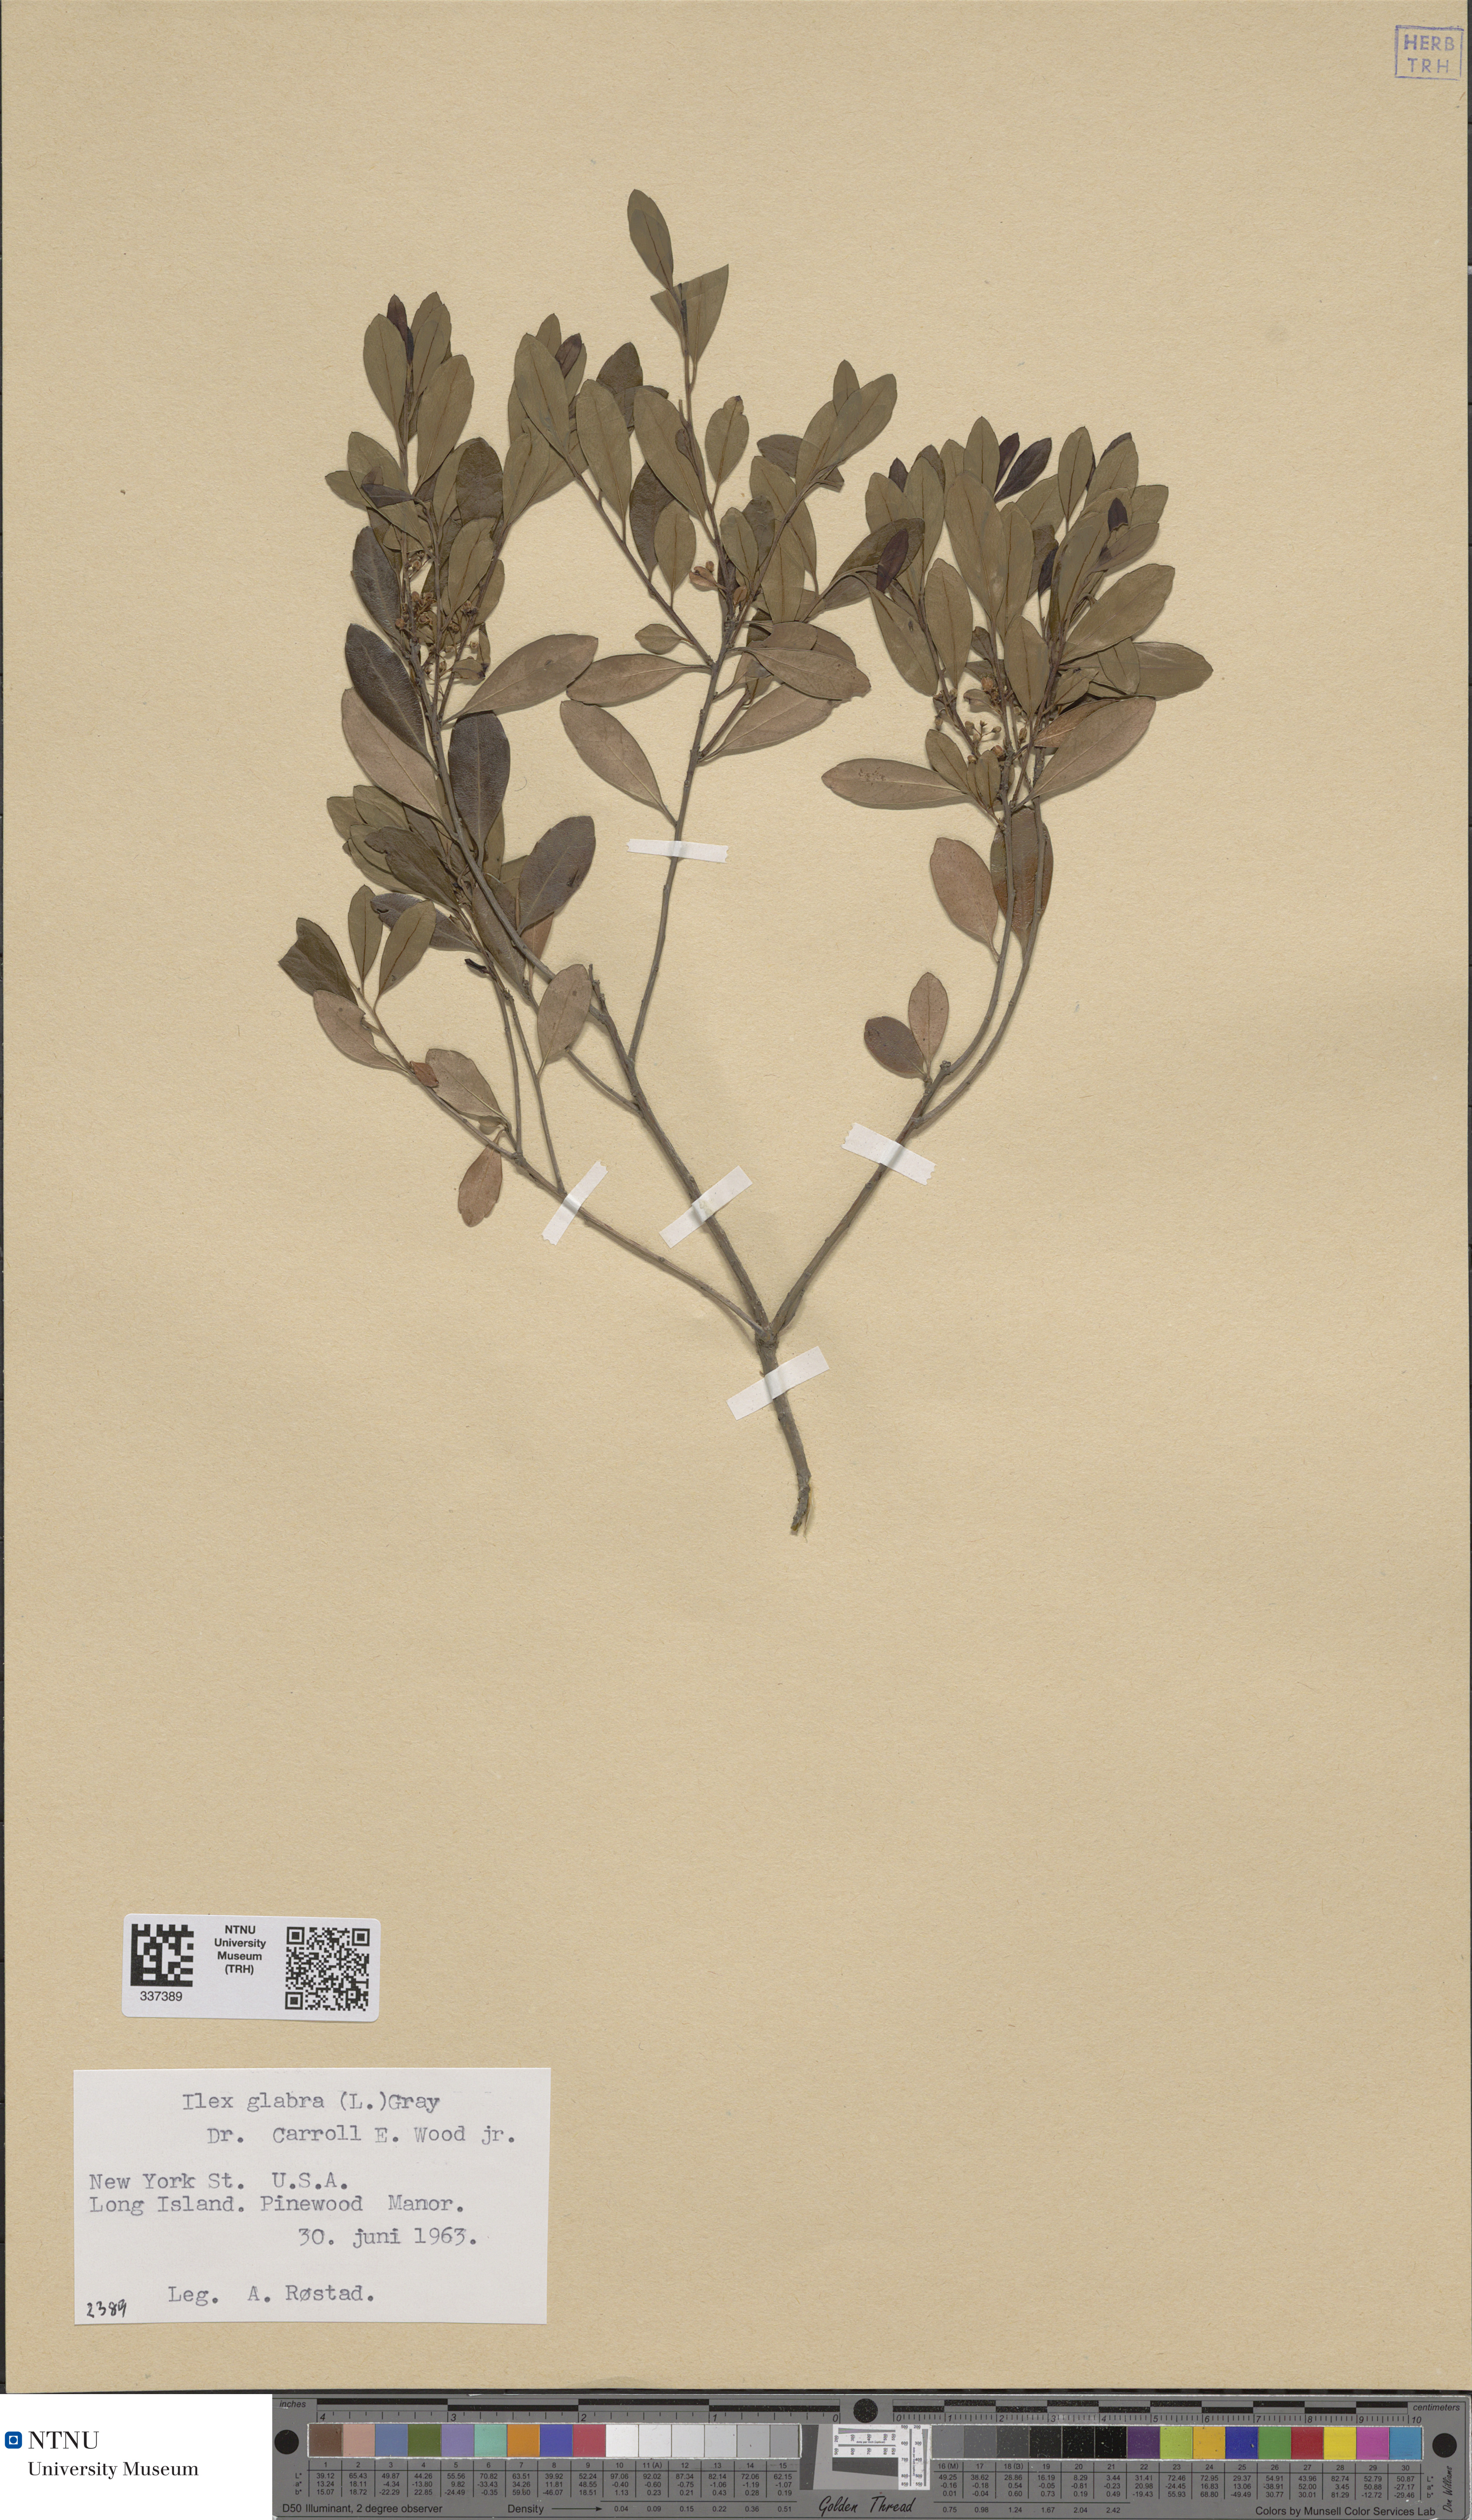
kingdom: Plantae
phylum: Tracheophyta
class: Magnoliopsida
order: Aquifoliales
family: Aquifoliaceae
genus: Ilex
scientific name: Ilex glabra
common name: Bitter gallberry
